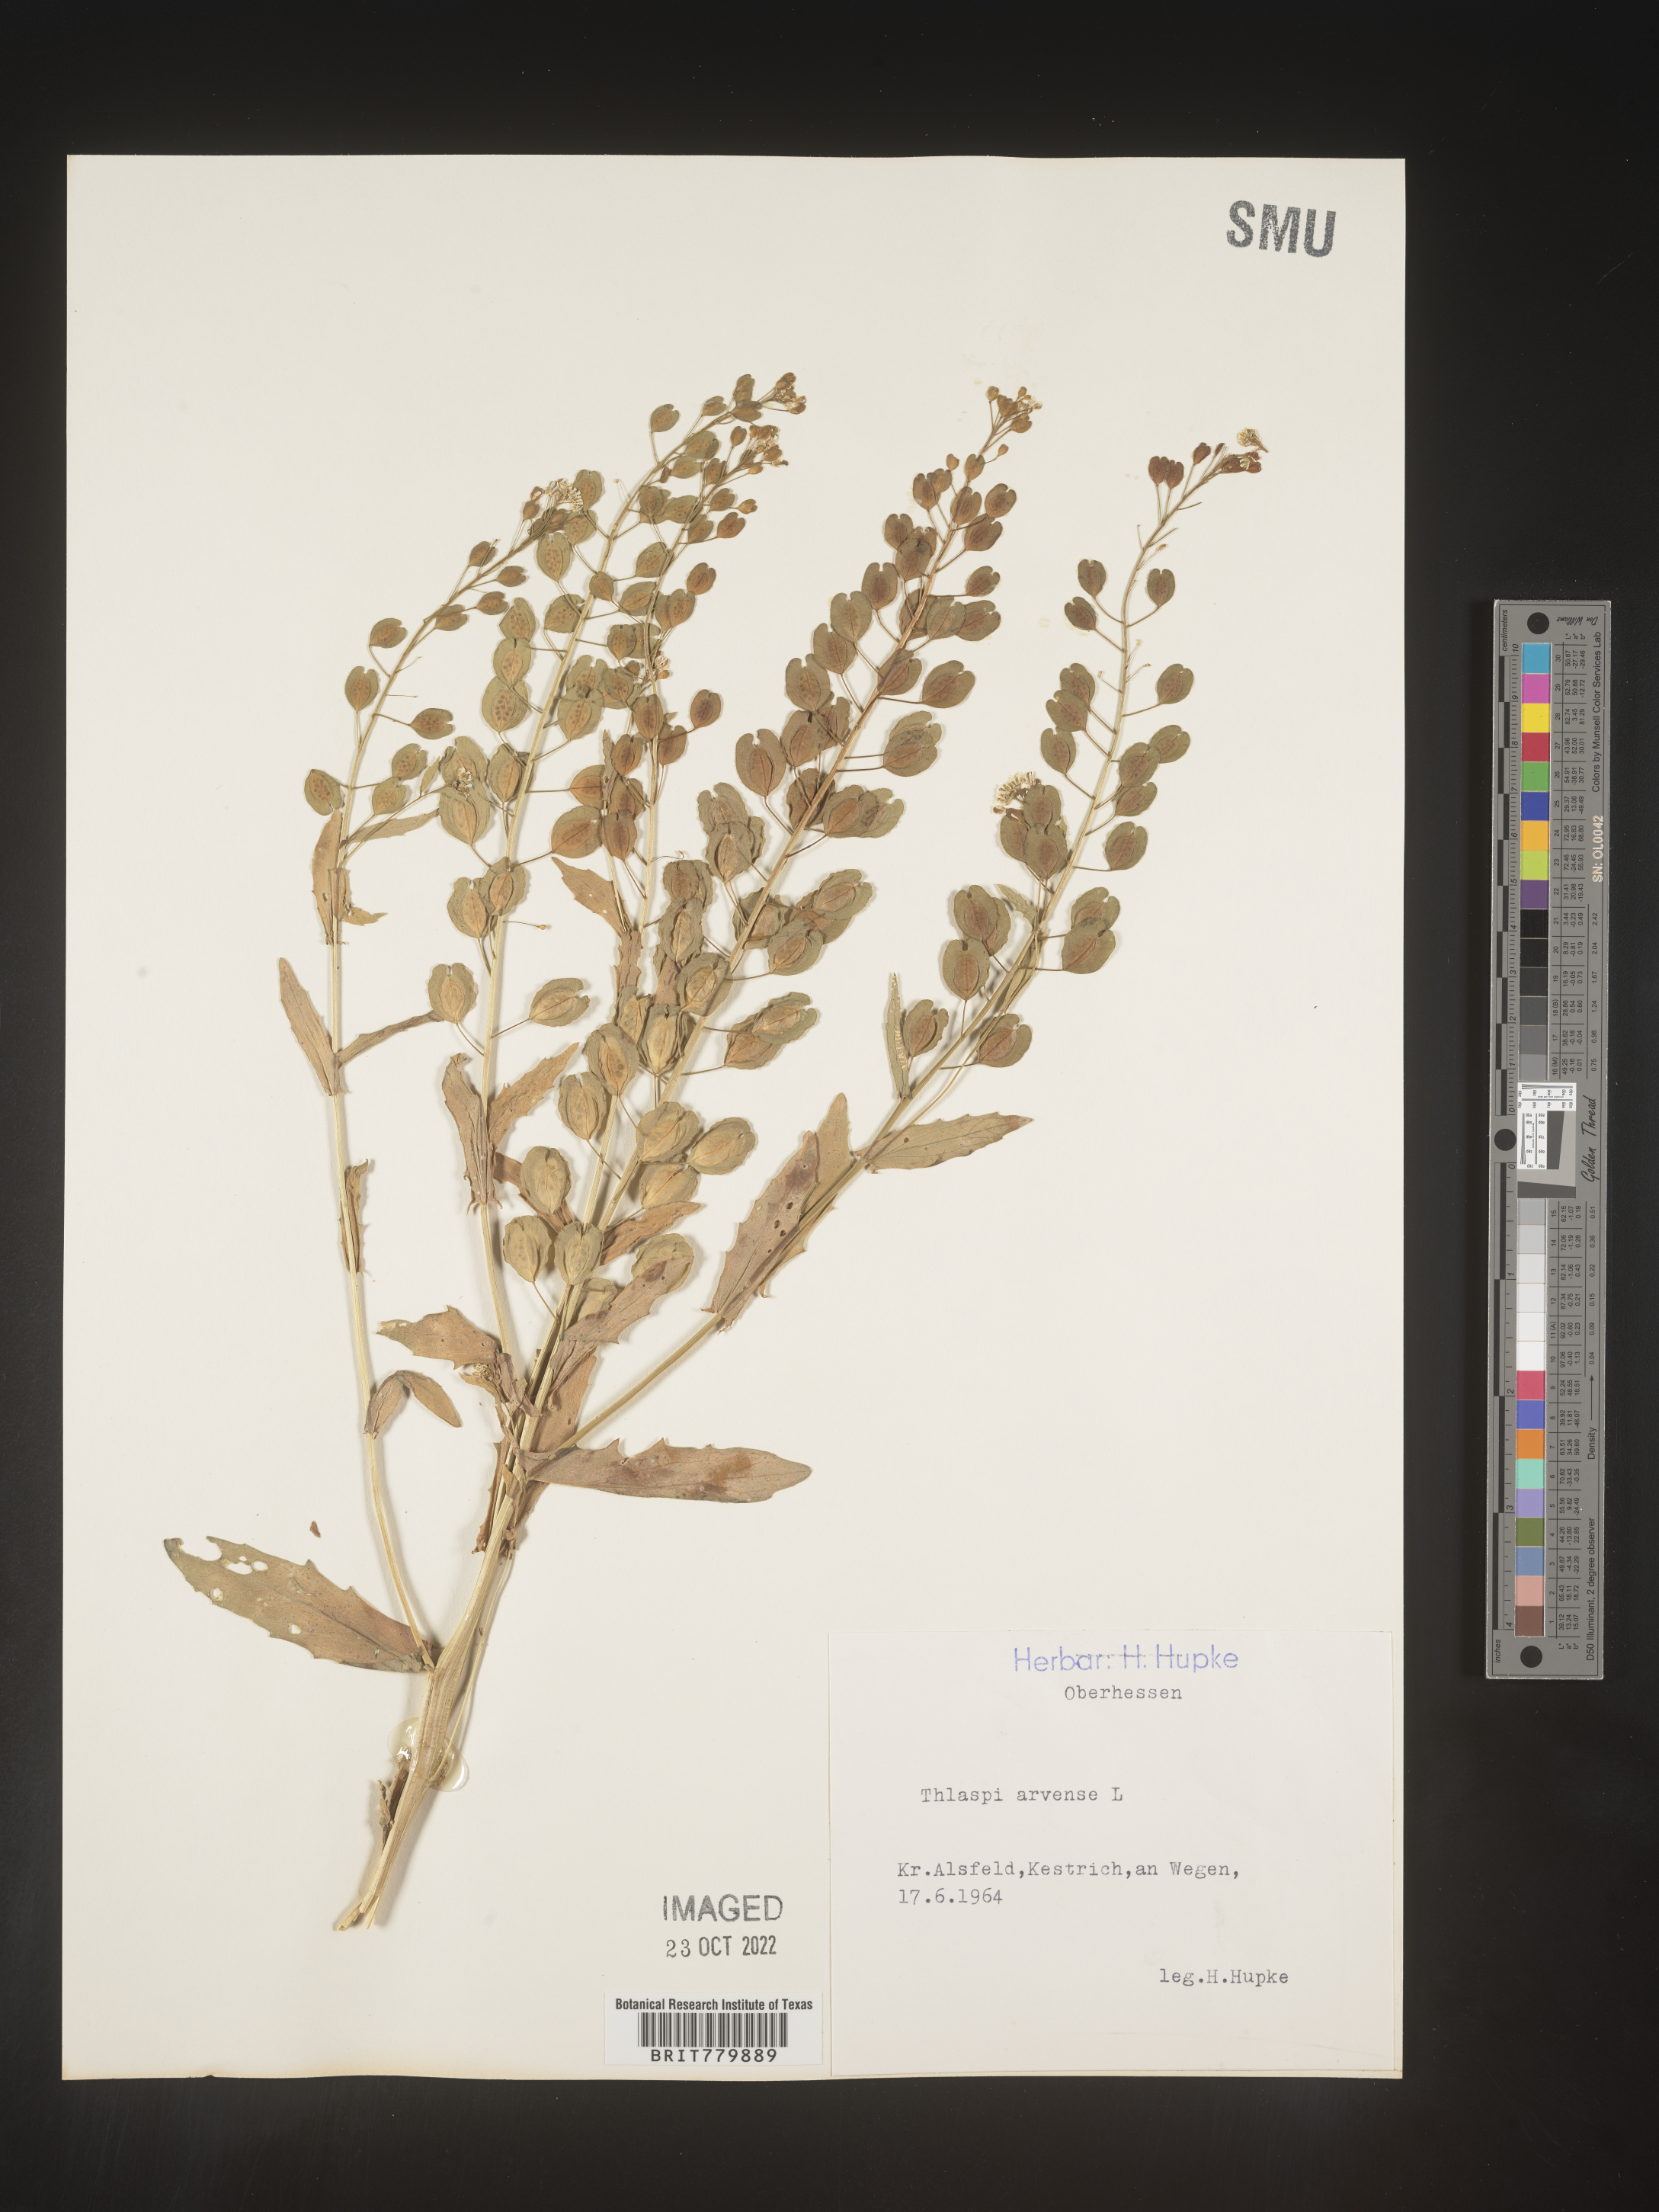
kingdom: Plantae
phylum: Tracheophyta
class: Magnoliopsida
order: Brassicales
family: Brassicaceae
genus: Thlaspi
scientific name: Thlaspi
